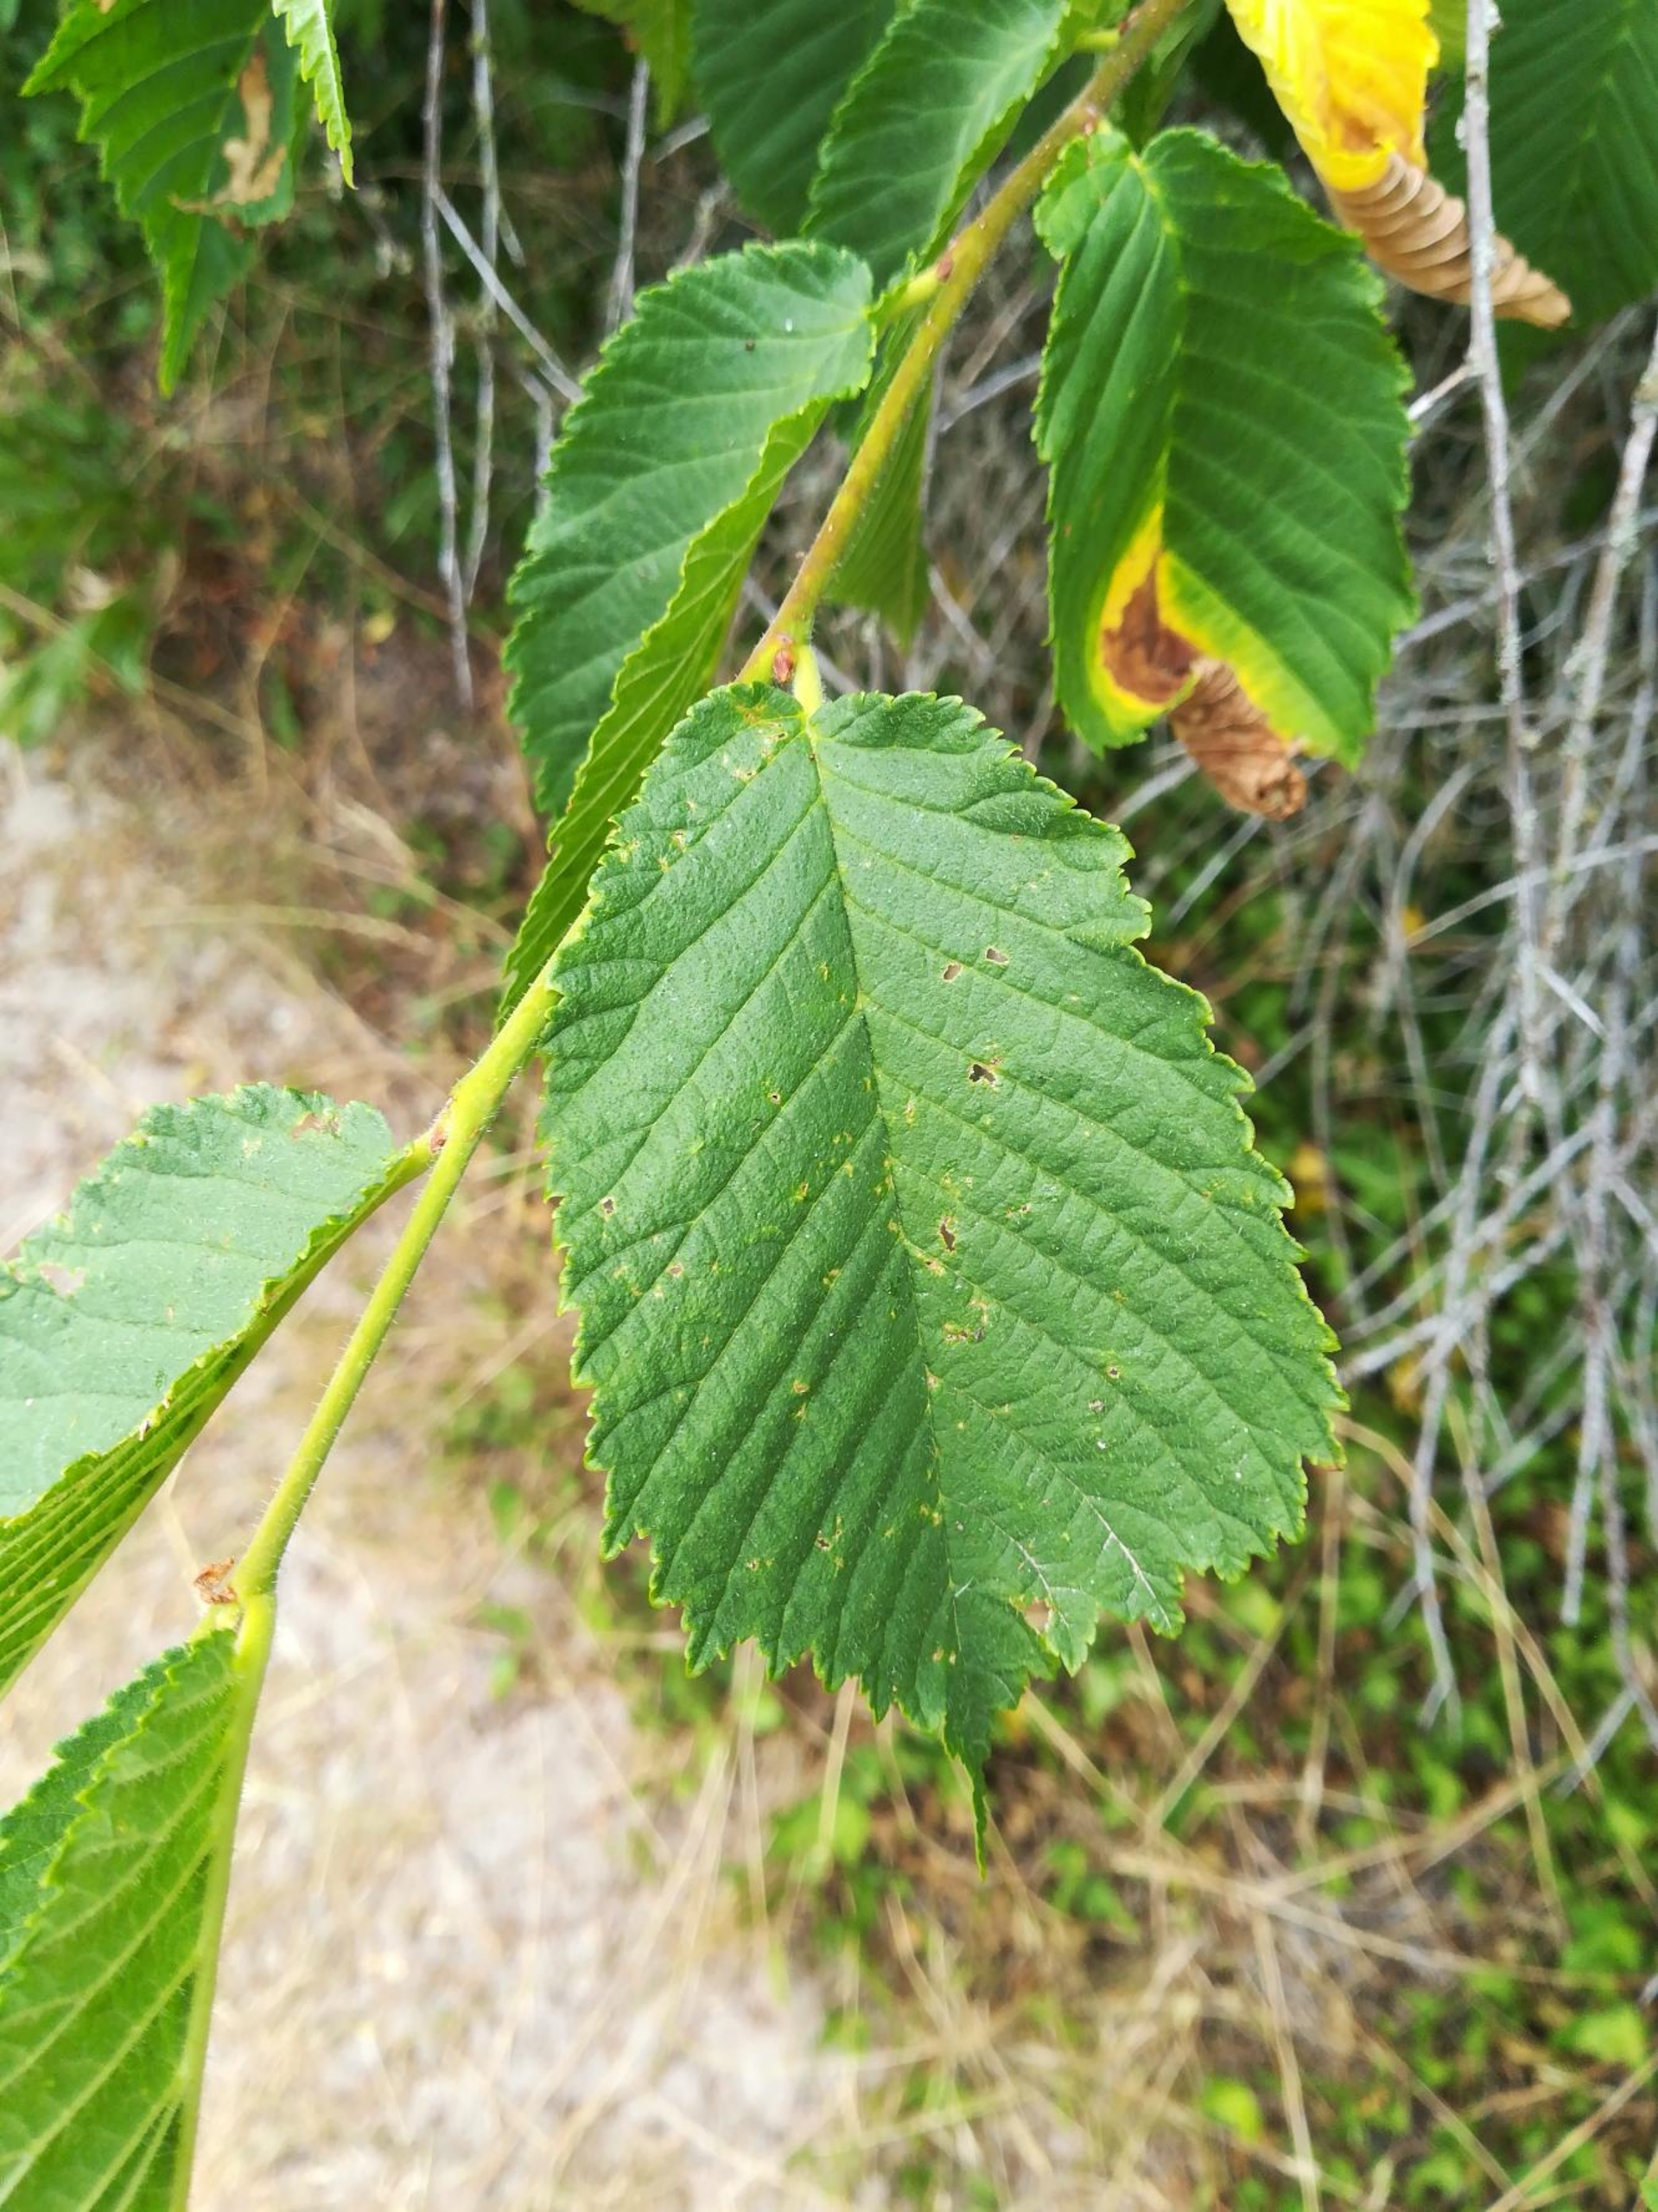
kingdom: Plantae
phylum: Tracheophyta
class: Magnoliopsida
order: Rosales
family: Ulmaceae
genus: Ulmus
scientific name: Ulmus glabra
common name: Skov-elm/storbladet elm
